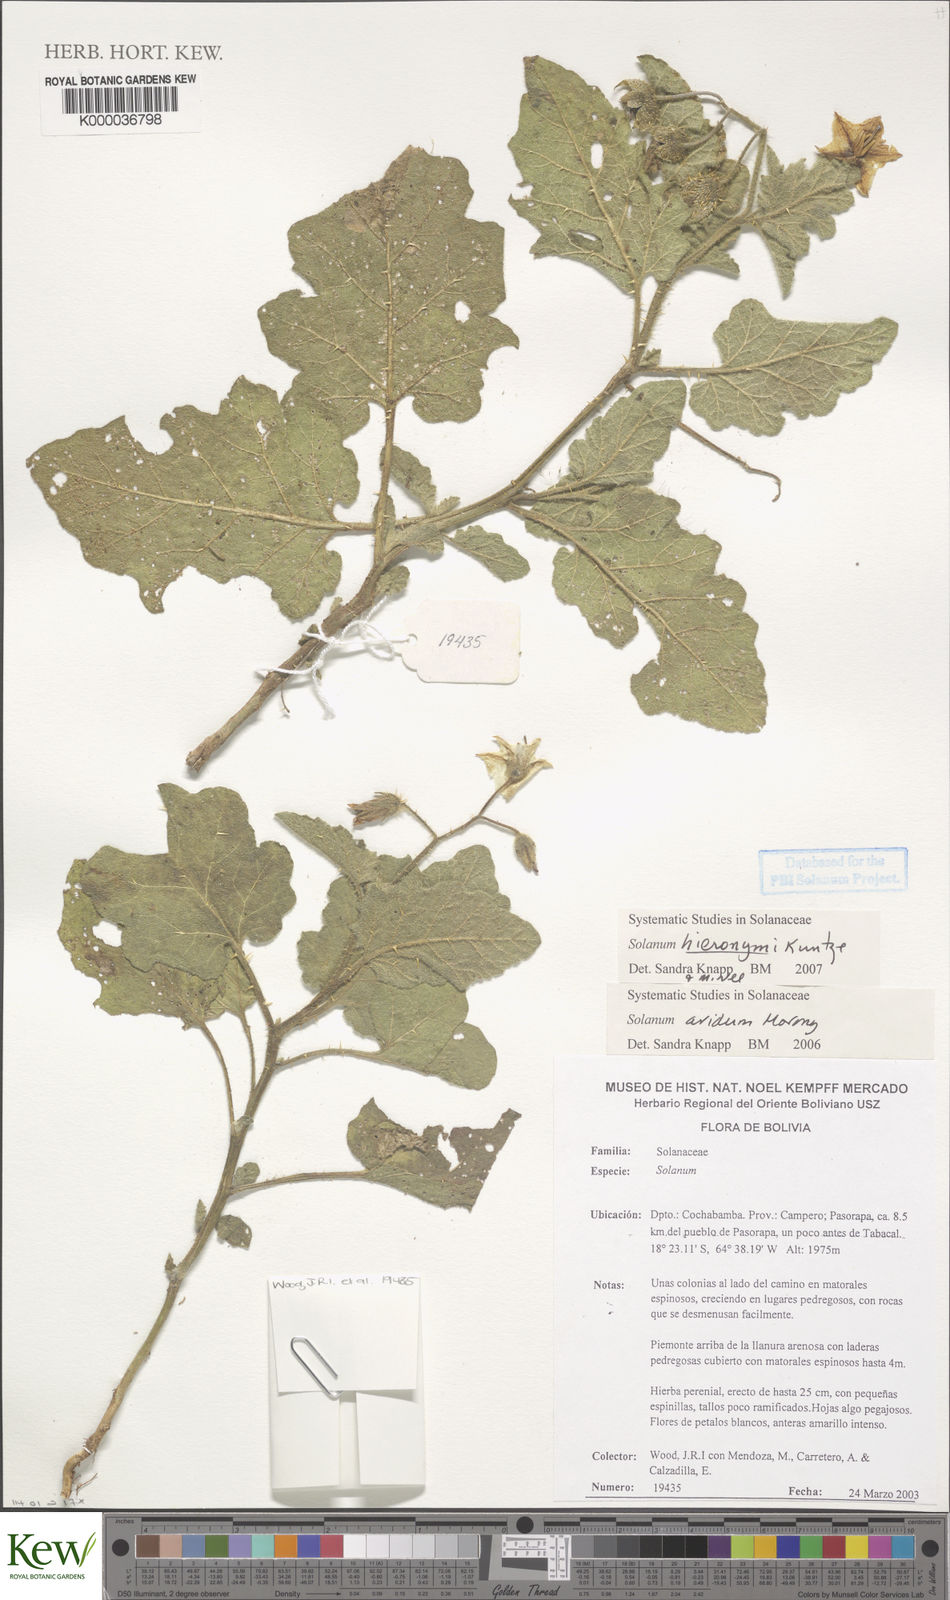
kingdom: Plantae
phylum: Tracheophyta
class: Magnoliopsida
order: Solanales
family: Solanaceae
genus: Solanum
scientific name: Solanum aridum
